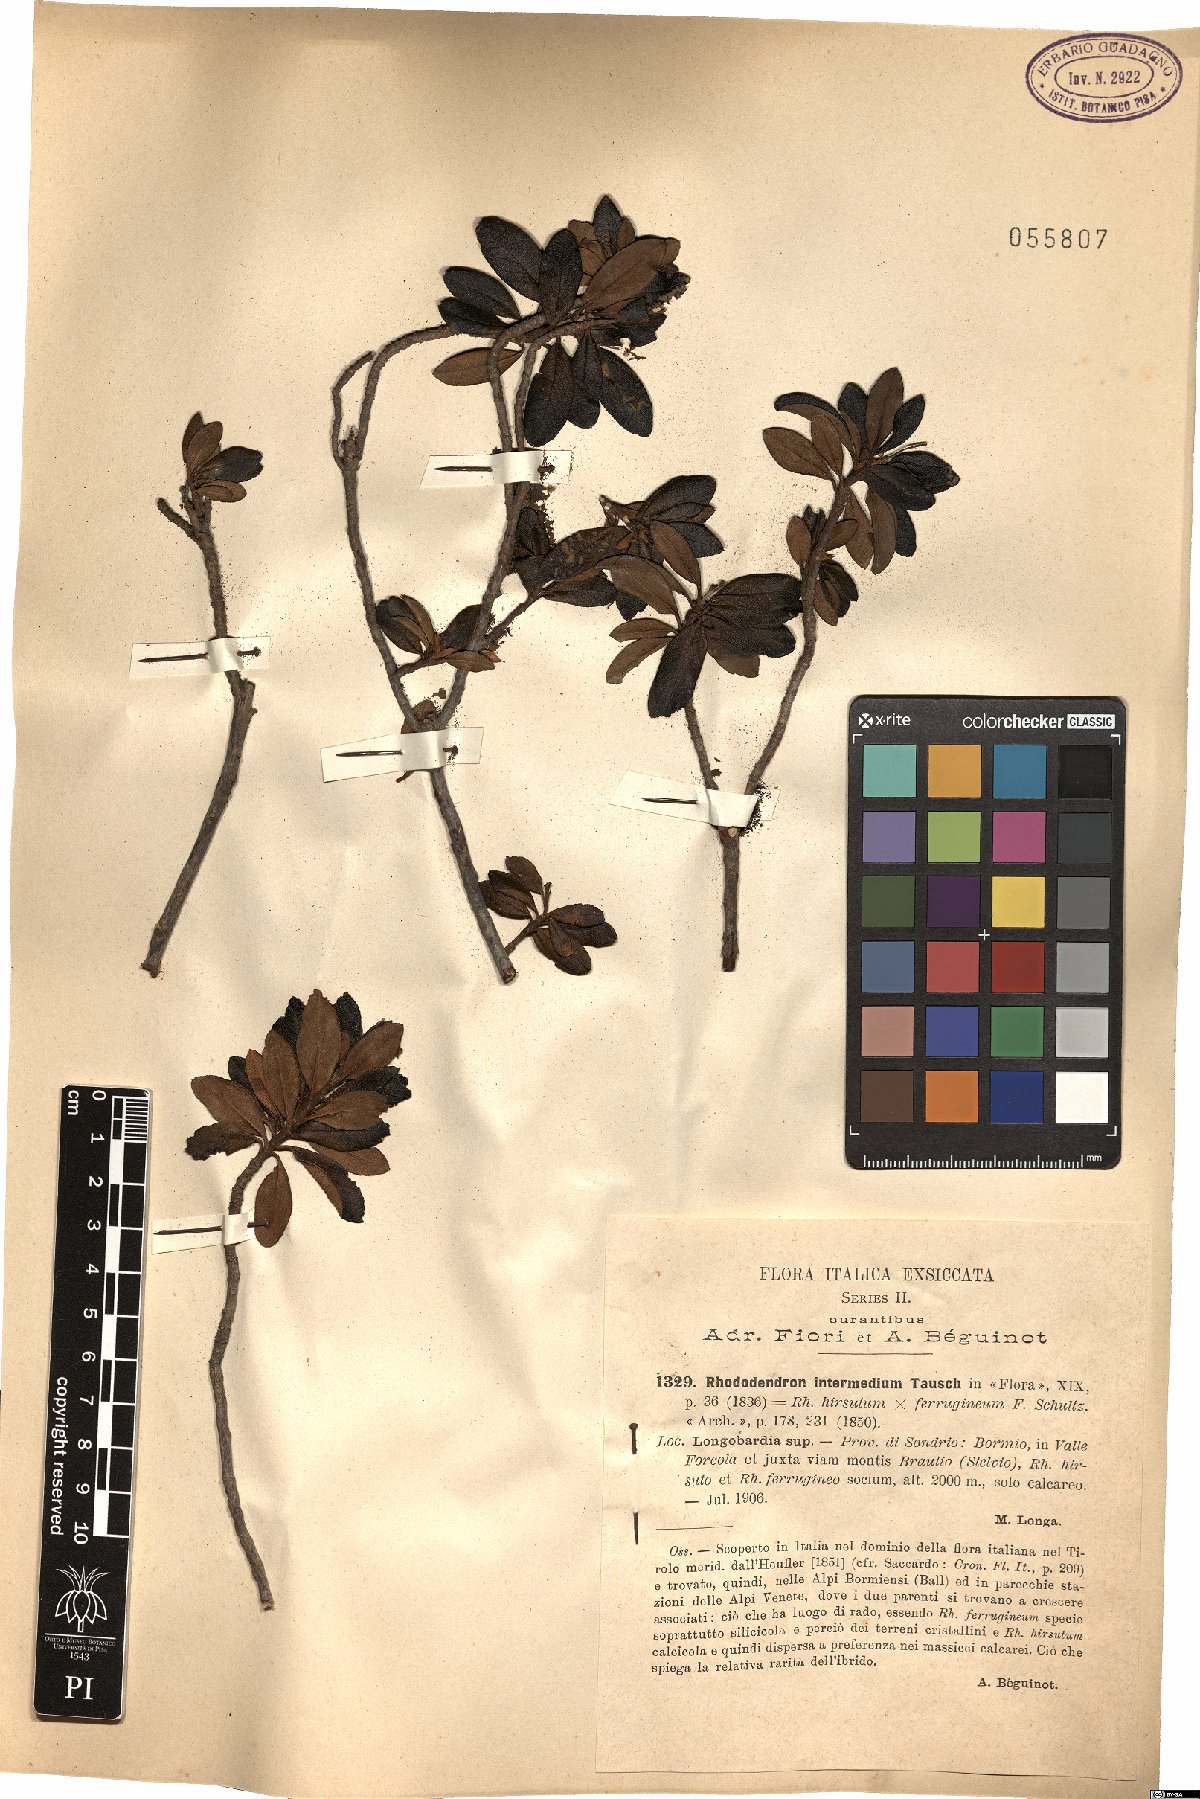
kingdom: Plantae
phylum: Tracheophyta
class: Magnoliopsida
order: Ericales
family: Ericaceae
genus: Rhododendron
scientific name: Rhododendron intermedium
